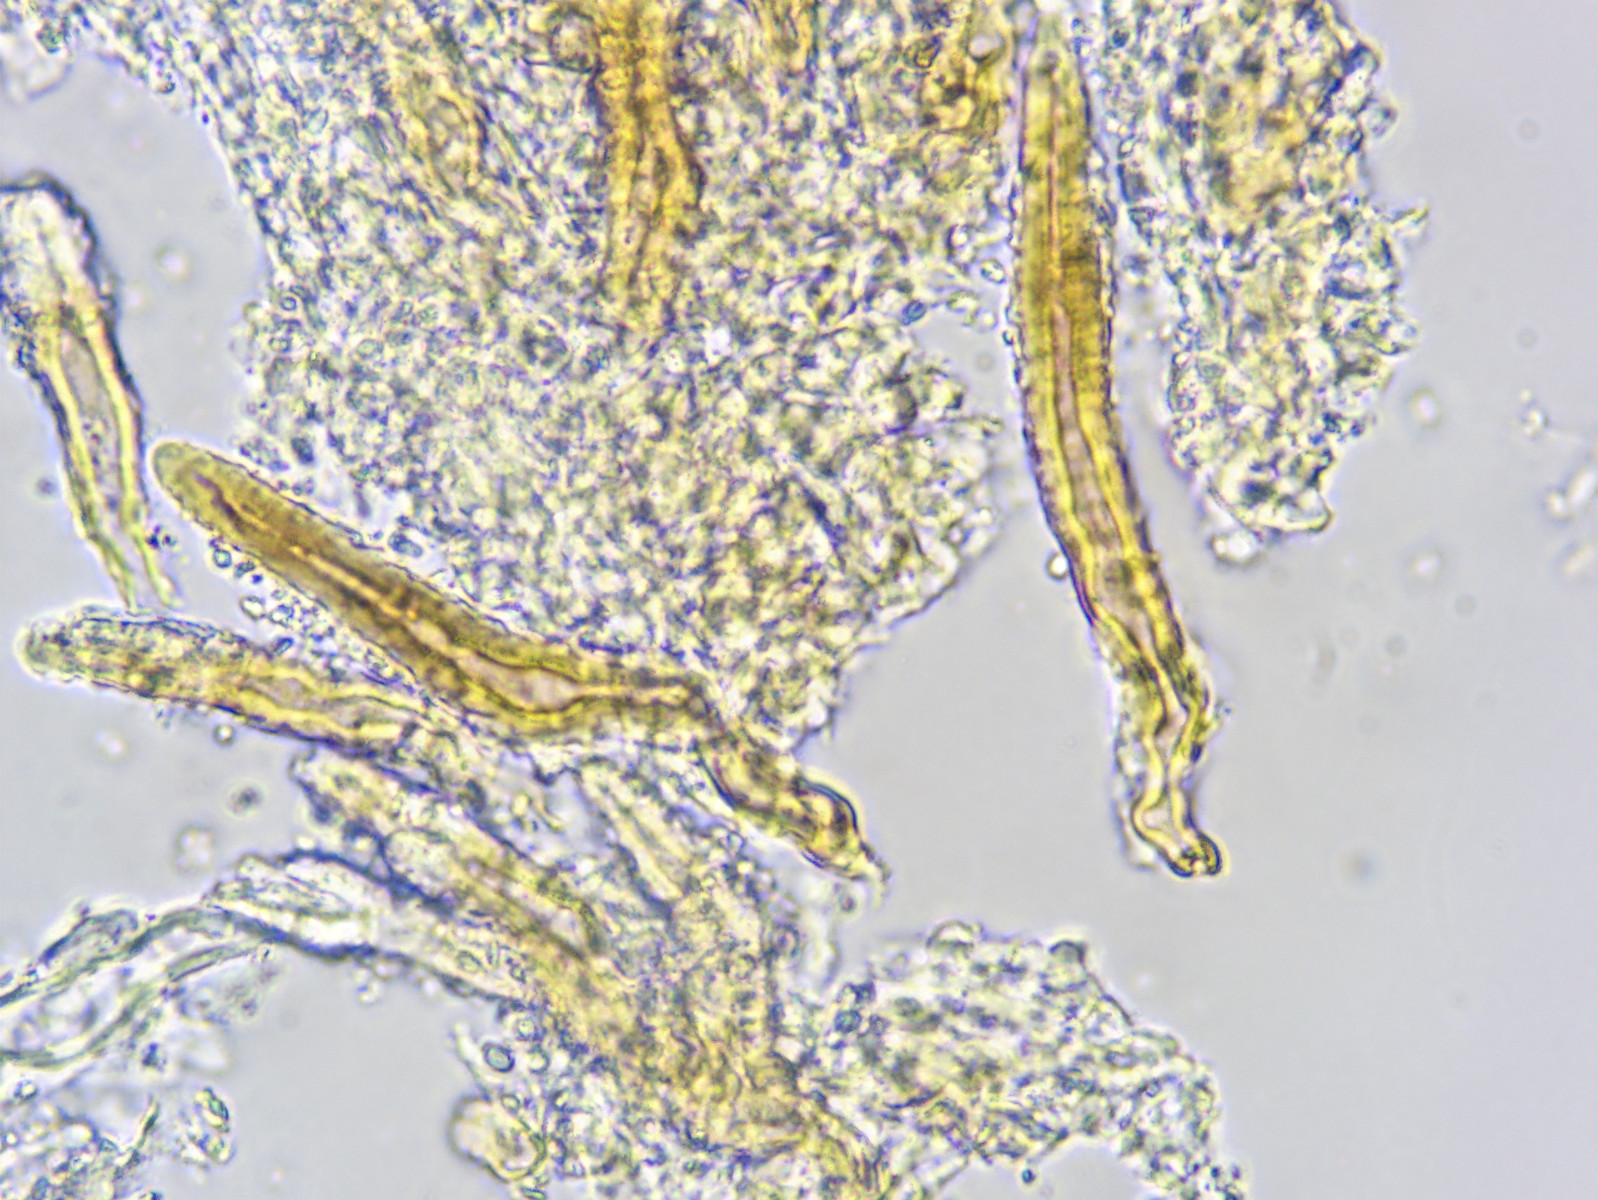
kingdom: Fungi
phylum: Basidiomycota
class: Agaricomycetes
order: Russulales
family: Echinodontiaceae
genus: Amylostereum
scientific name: Amylostereum laevigatum
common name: ene-lædersvamp
